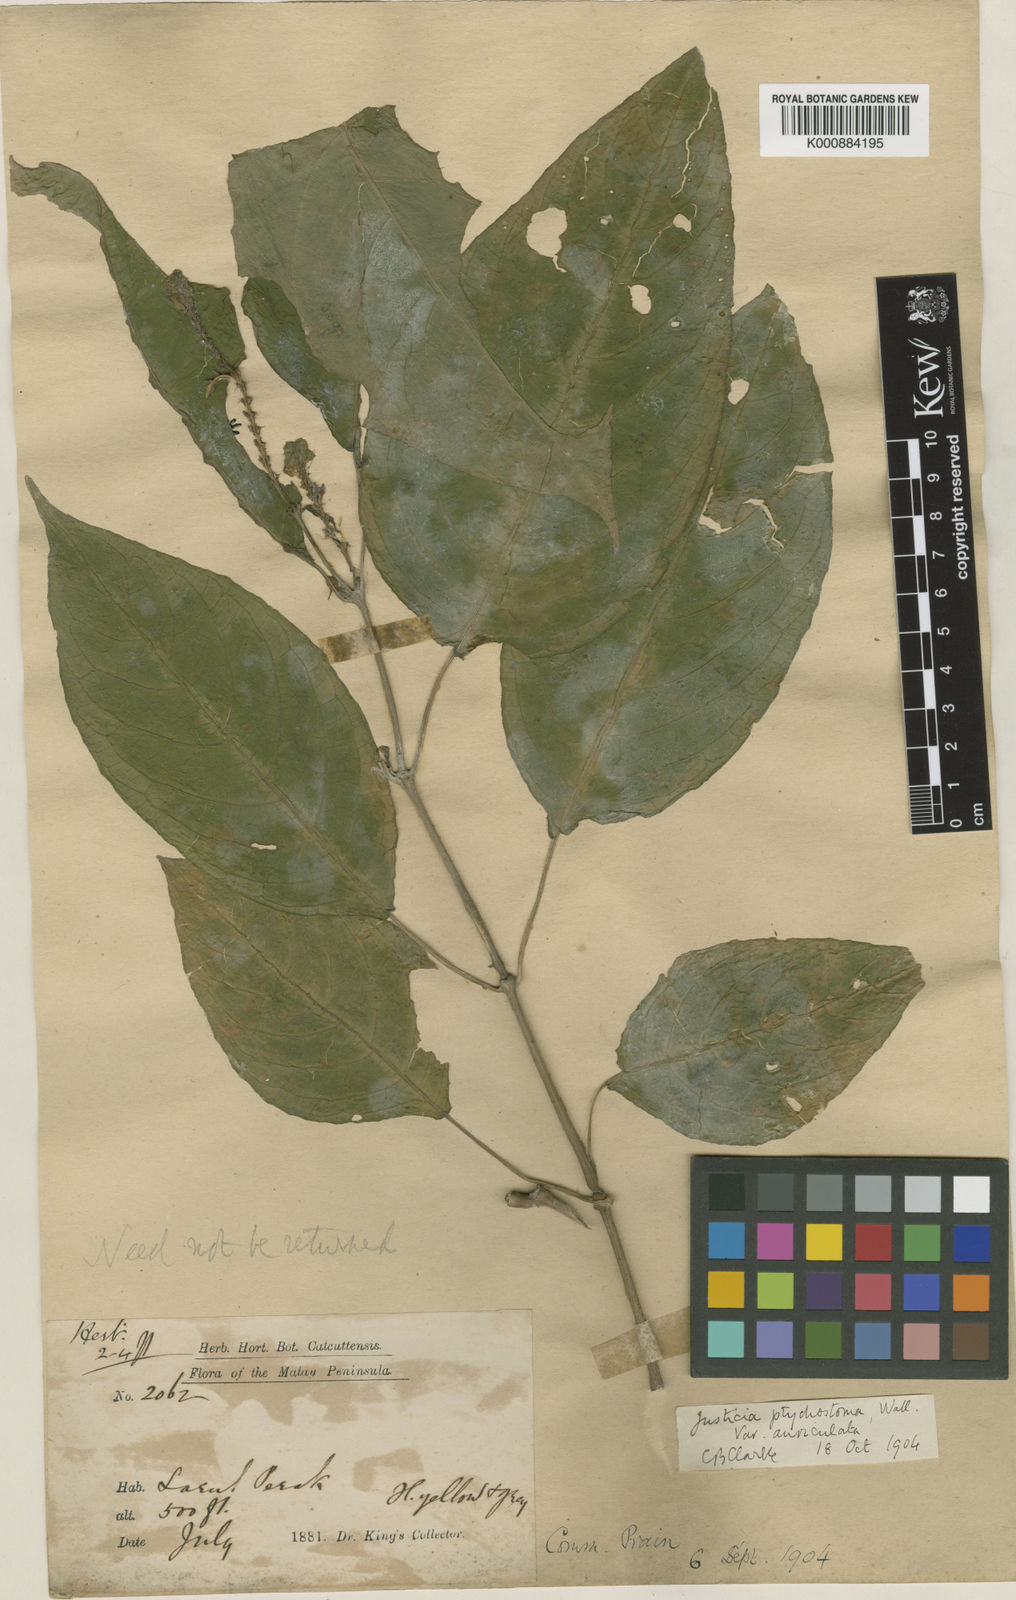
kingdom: Plantae
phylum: Tracheophyta
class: Magnoliopsida
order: Lamiales
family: Acanthaceae
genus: Justicia
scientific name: Justicia sumatrana
